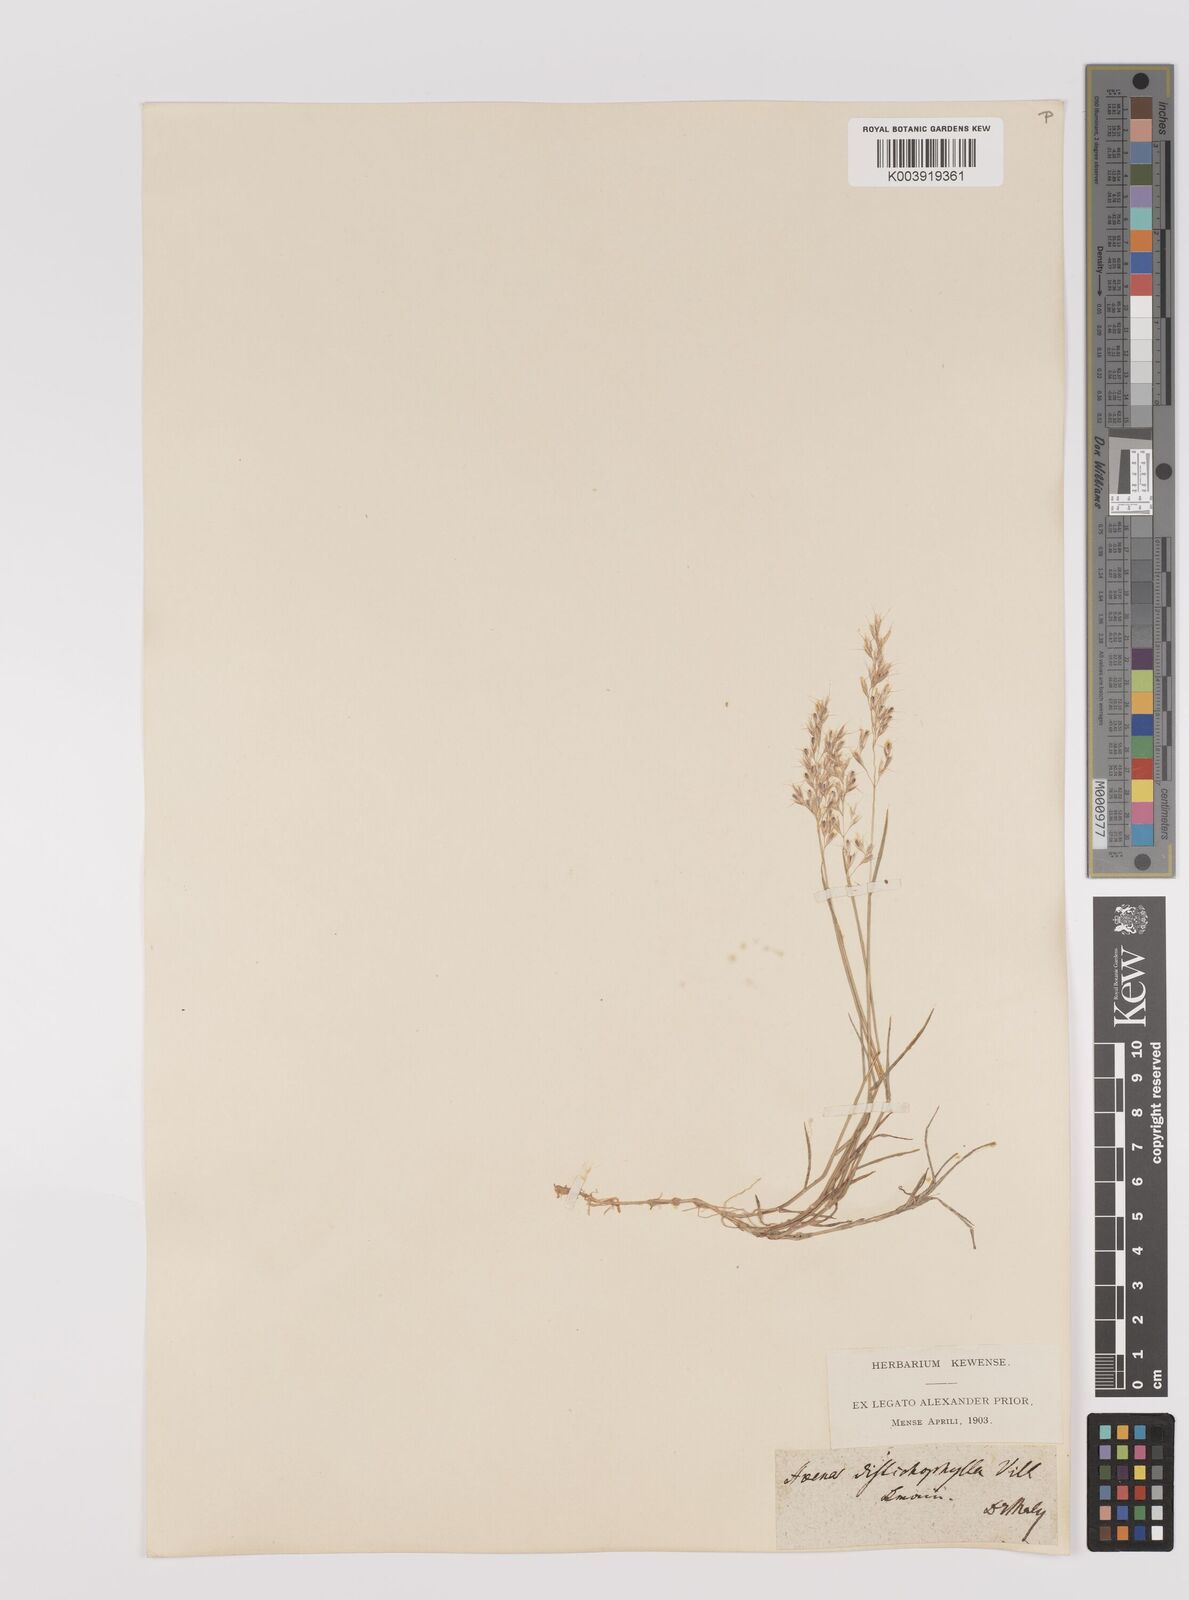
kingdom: Plantae
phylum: Tracheophyta
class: Liliopsida
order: Poales
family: Poaceae
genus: Acrospelion
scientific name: Acrospelion distichophyllum
